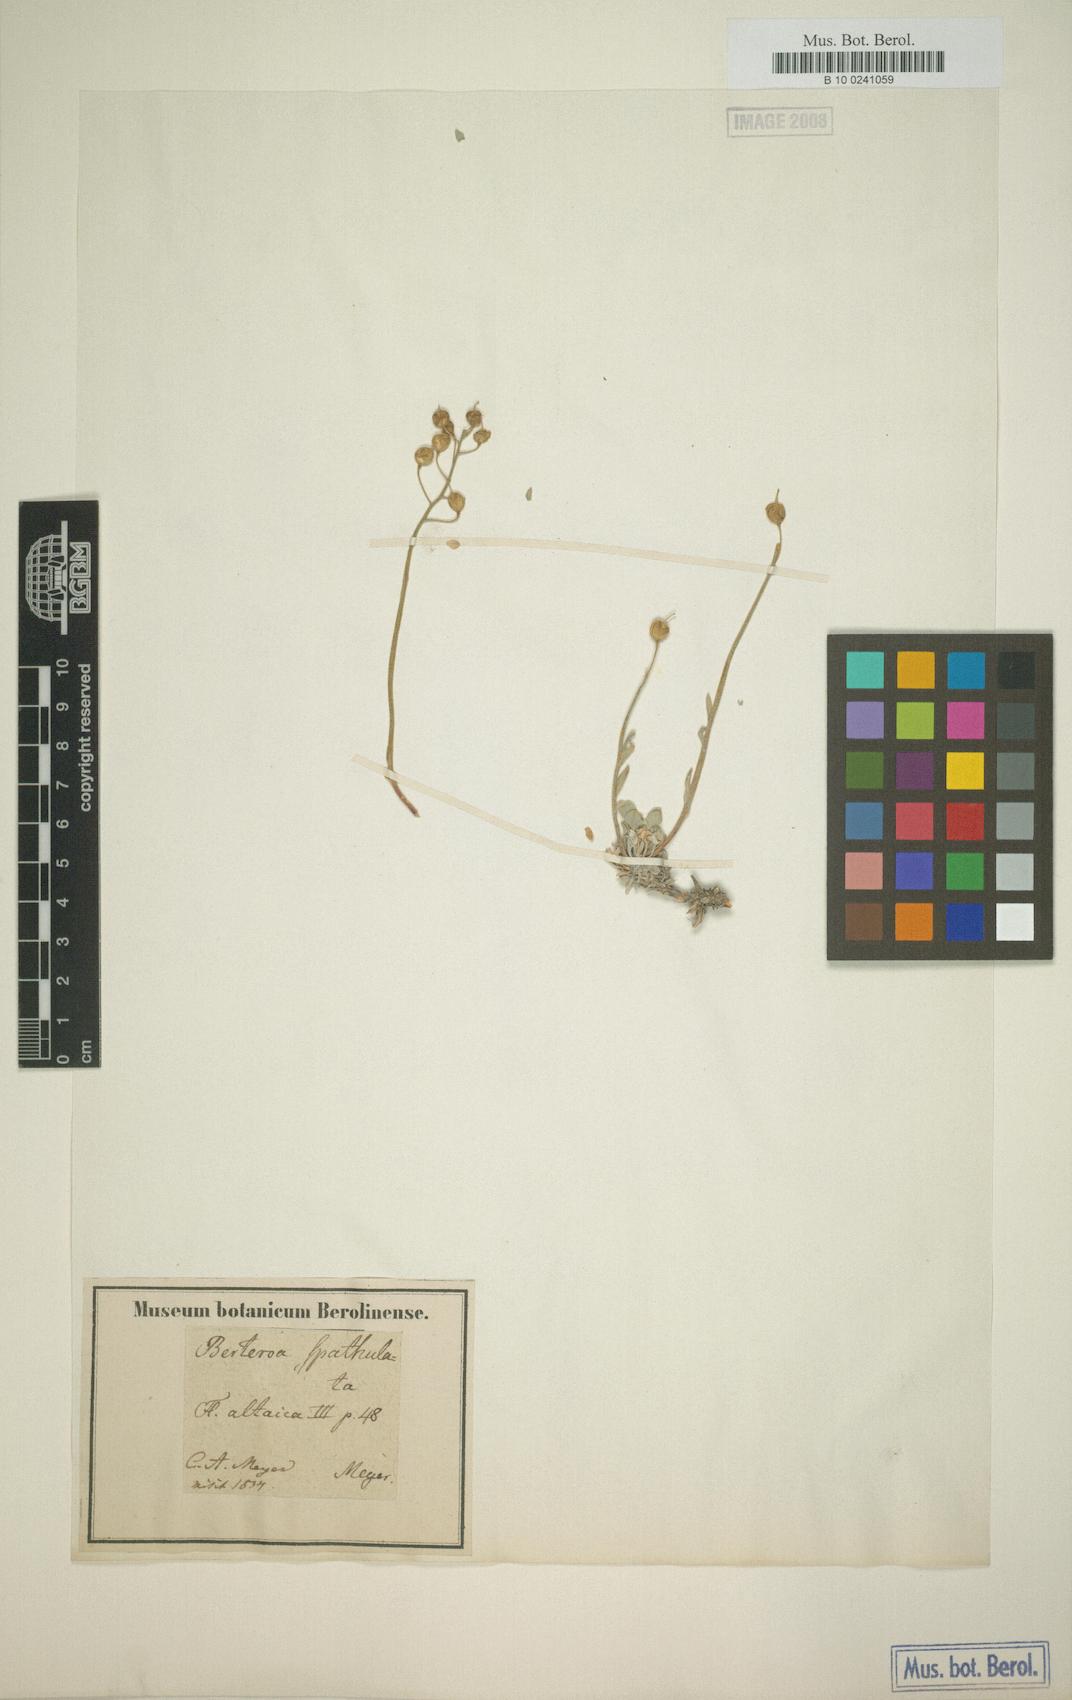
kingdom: Plantae
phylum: Tracheophyta
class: Magnoliopsida
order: Brassicales
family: Brassicaceae
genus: Galitzkya
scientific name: Galitzkya spathulata
